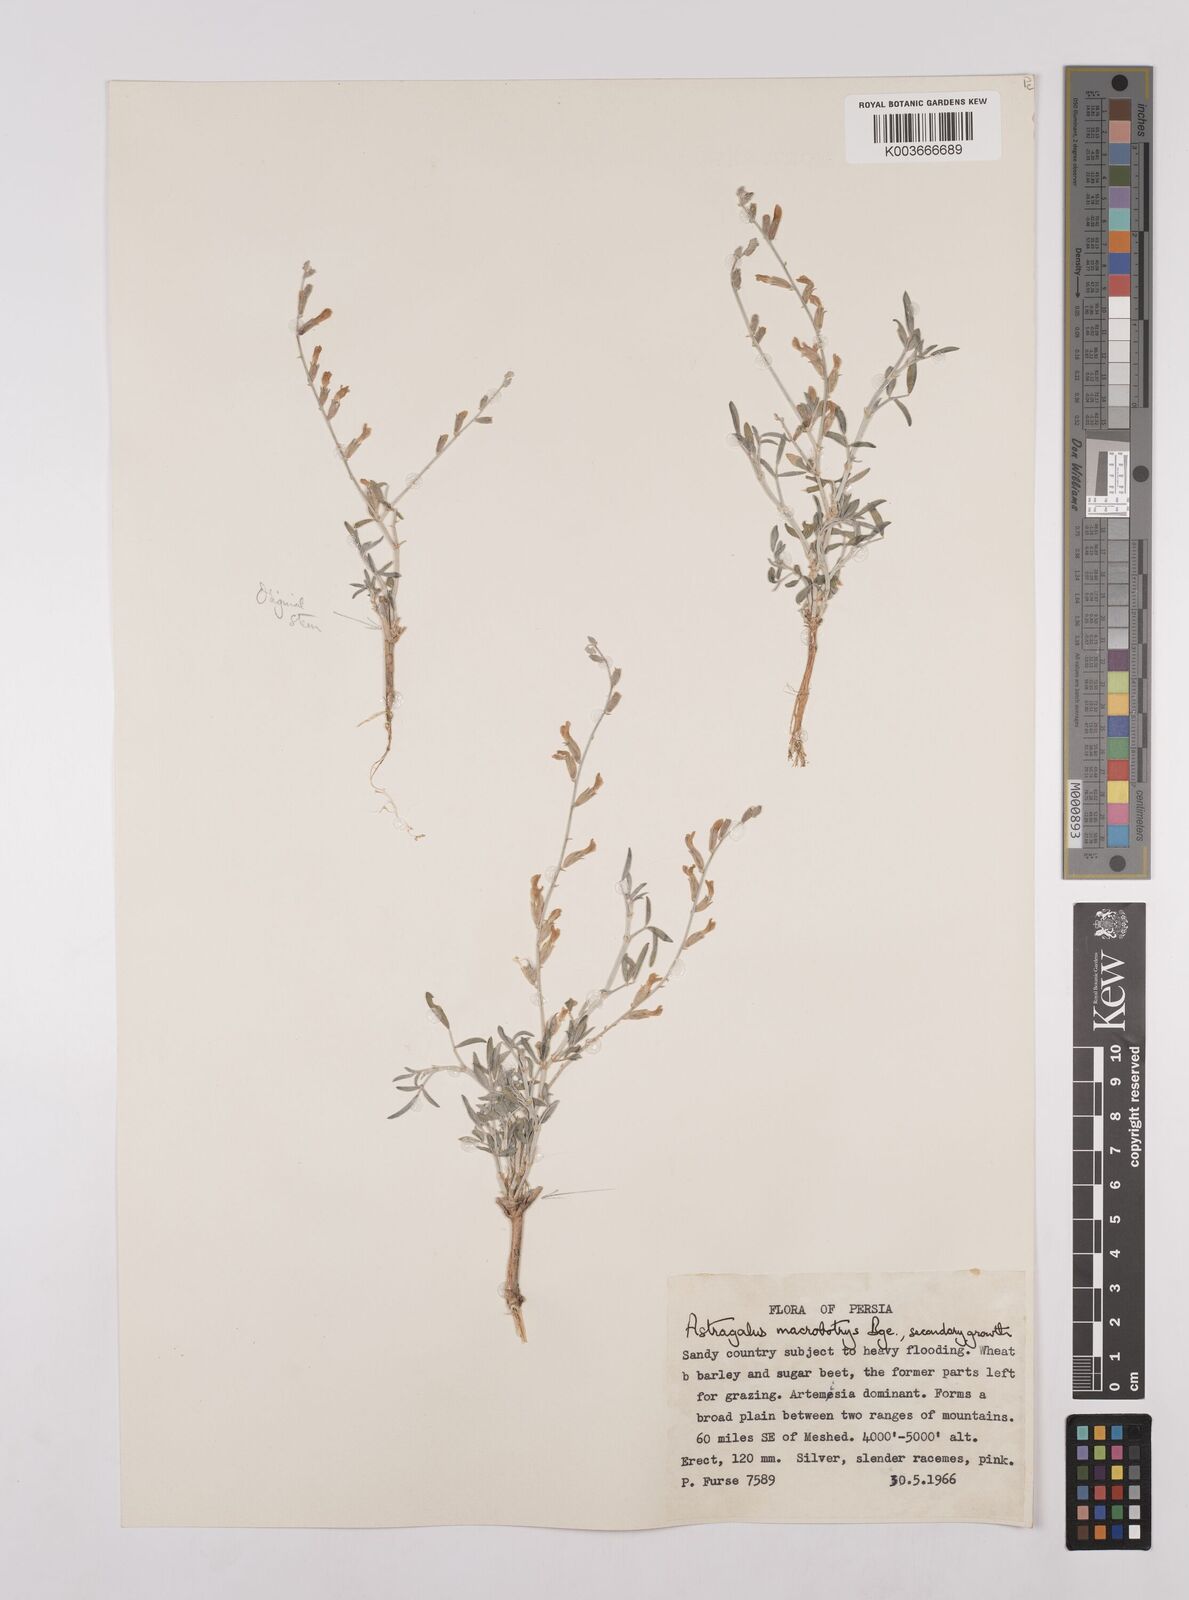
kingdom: Plantae
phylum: Tracheophyta
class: Magnoliopsida
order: Fabales
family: Fabaceae
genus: Astragalus
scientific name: Astragalus macrobotrys
